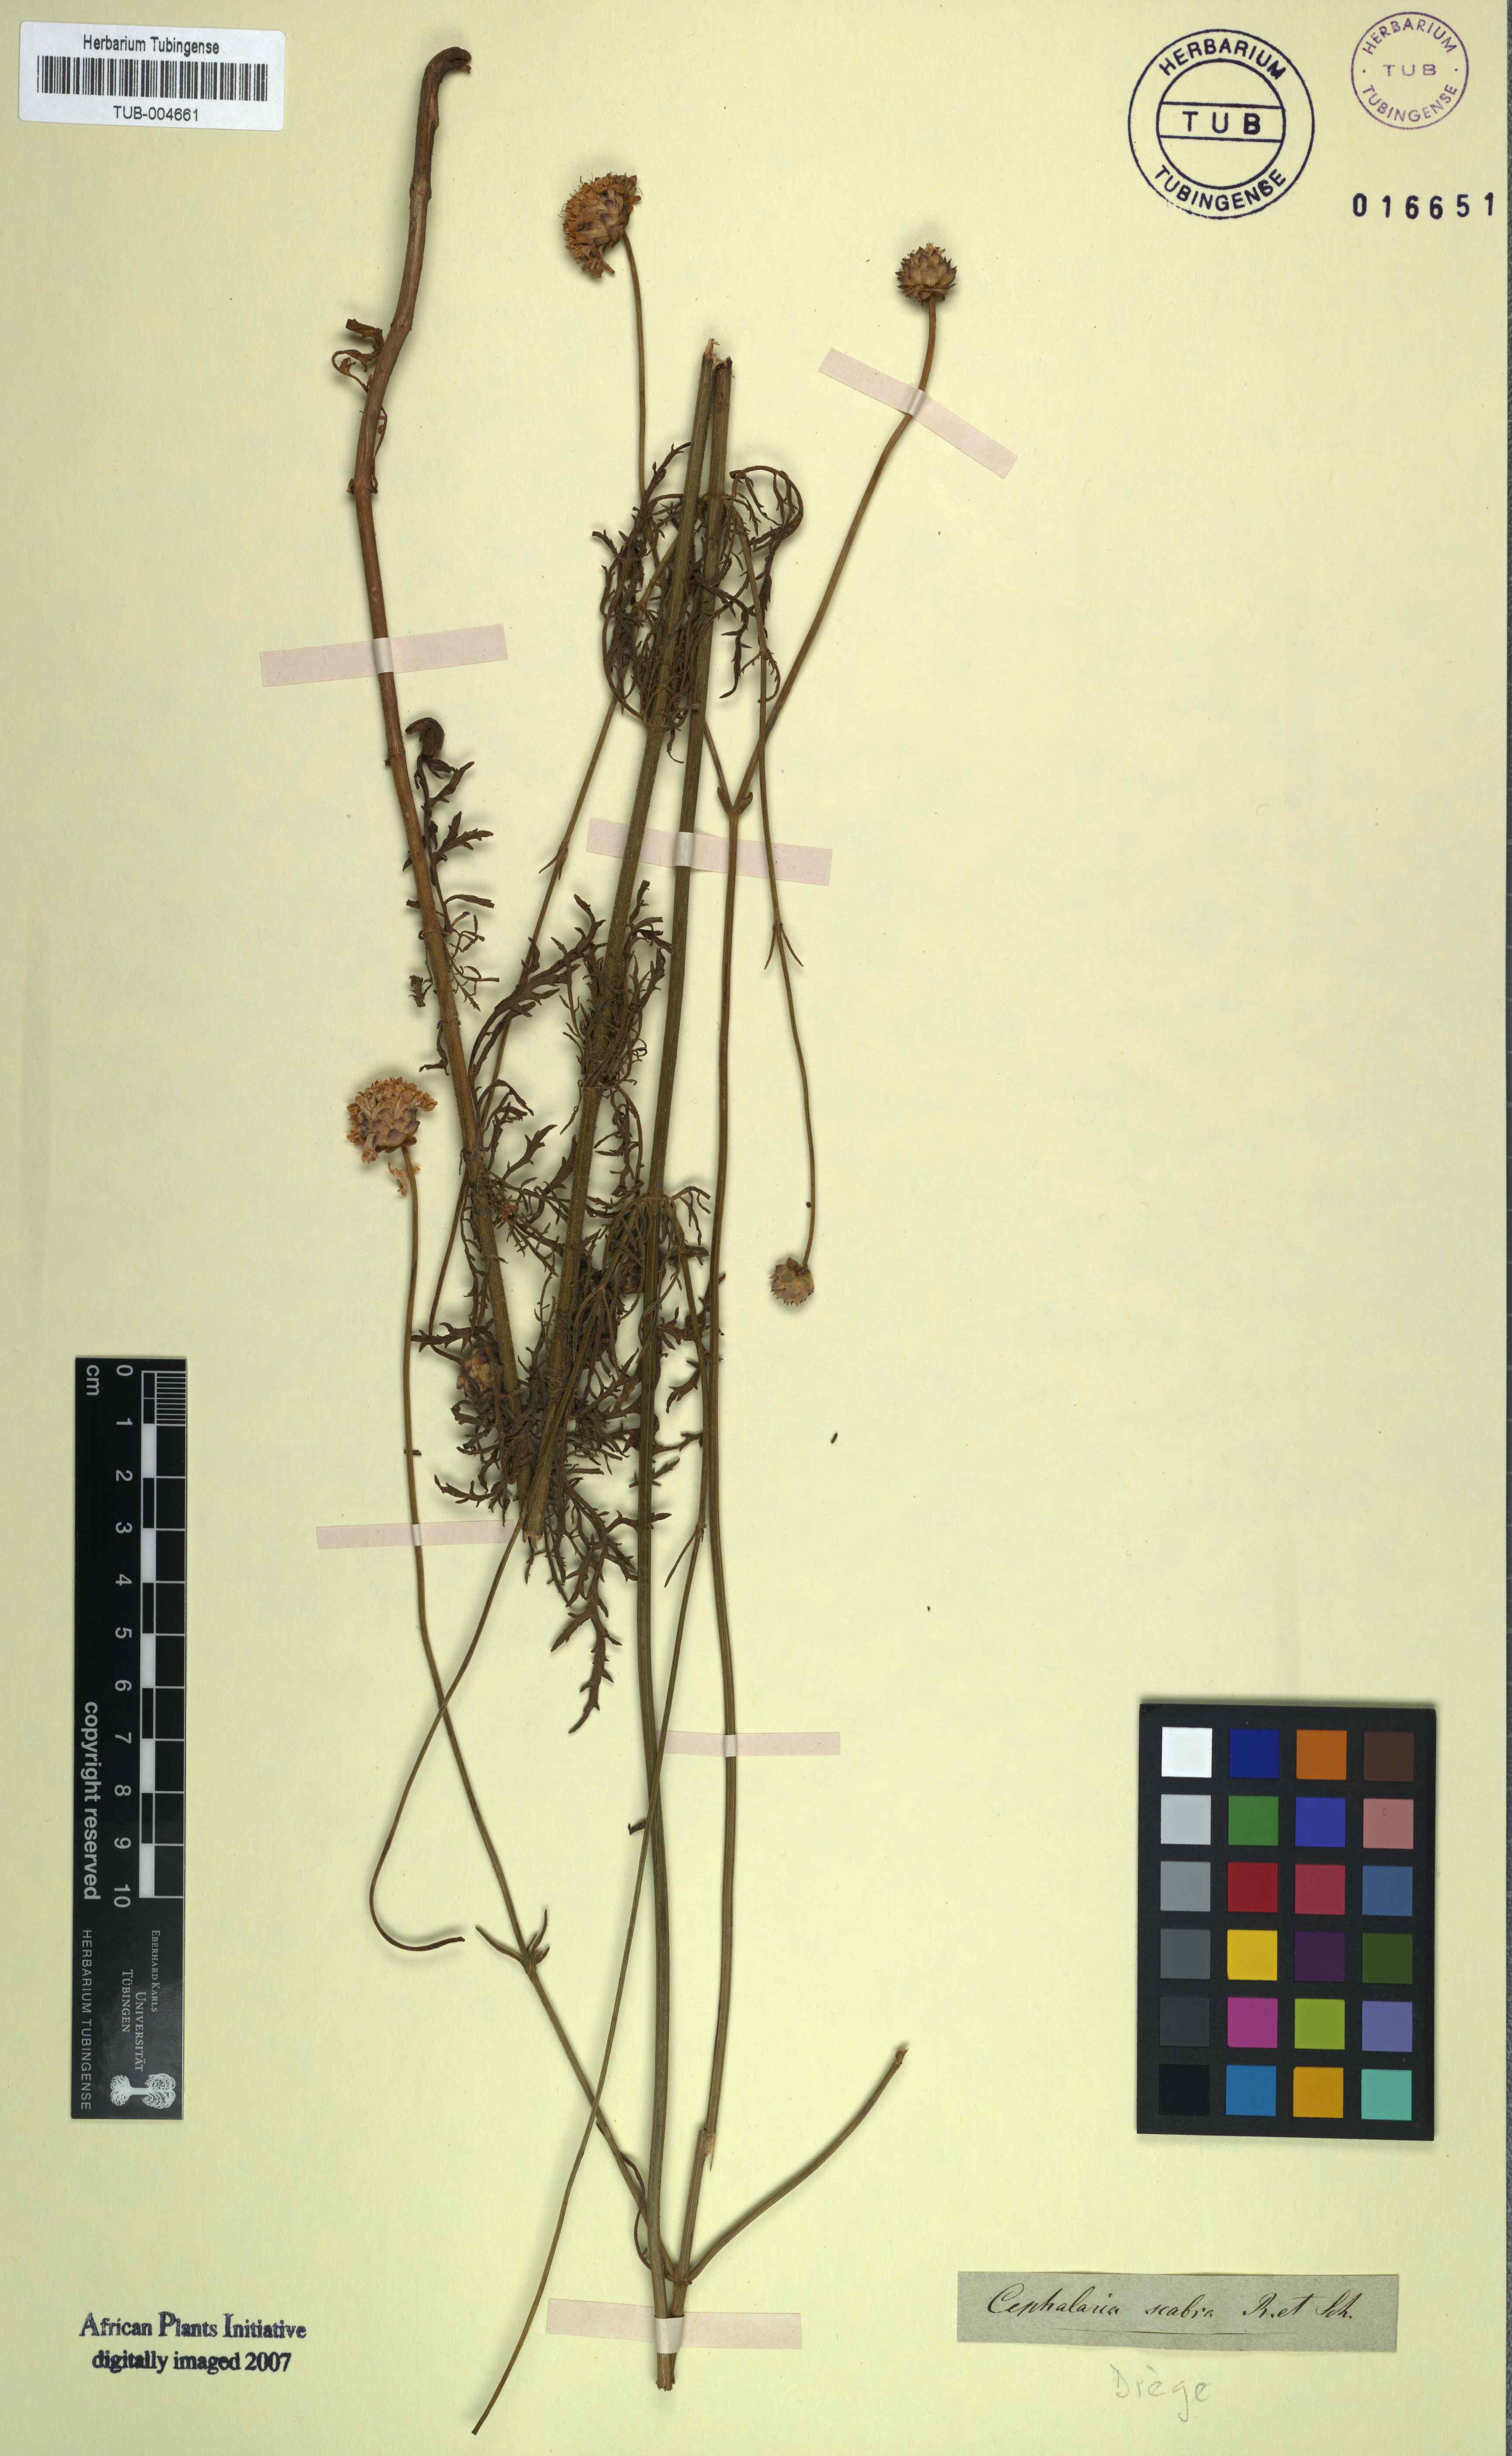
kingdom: Plantae
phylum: Tracheophyta
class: Magnoliopsida
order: Dipsacales
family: Caprifoliaceae
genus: Cephalaria
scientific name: Cephalaria scabra
